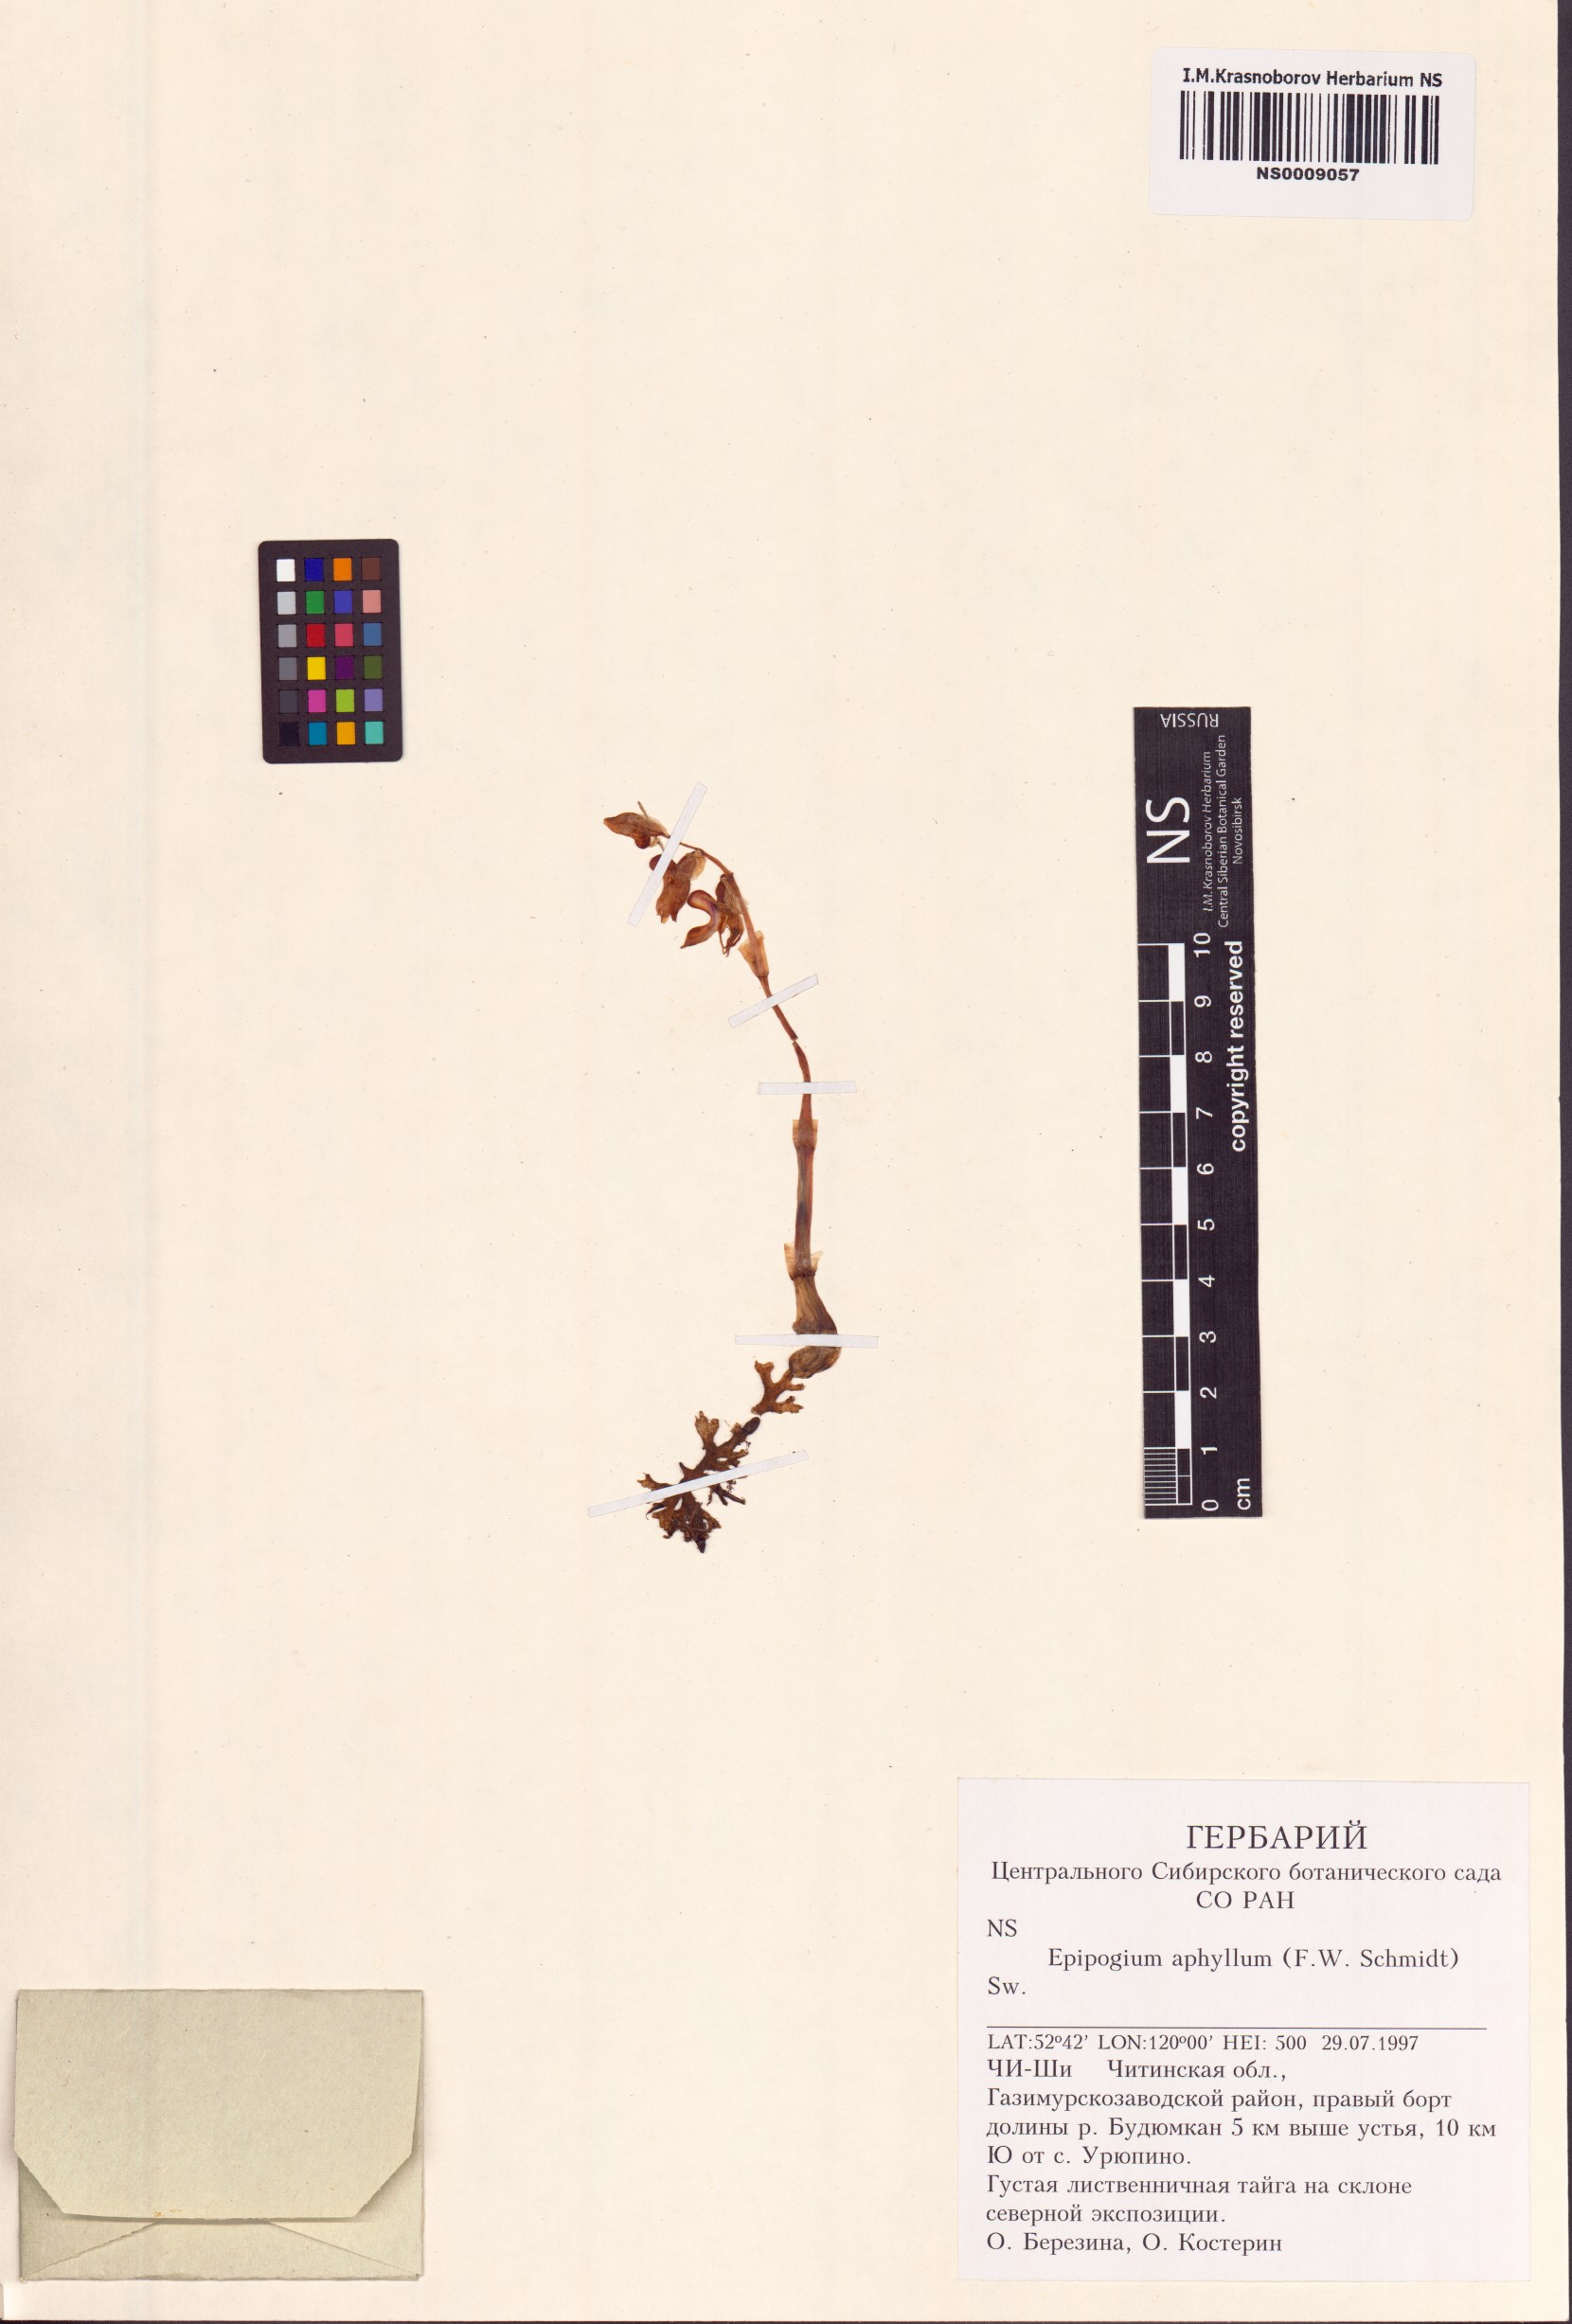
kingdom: Plantae
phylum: Tracheophyta
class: Liliopsida
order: Asparagales
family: Orchidaceae
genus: Epipogium
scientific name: Epipogium aphyllum
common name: Ghost orchid
